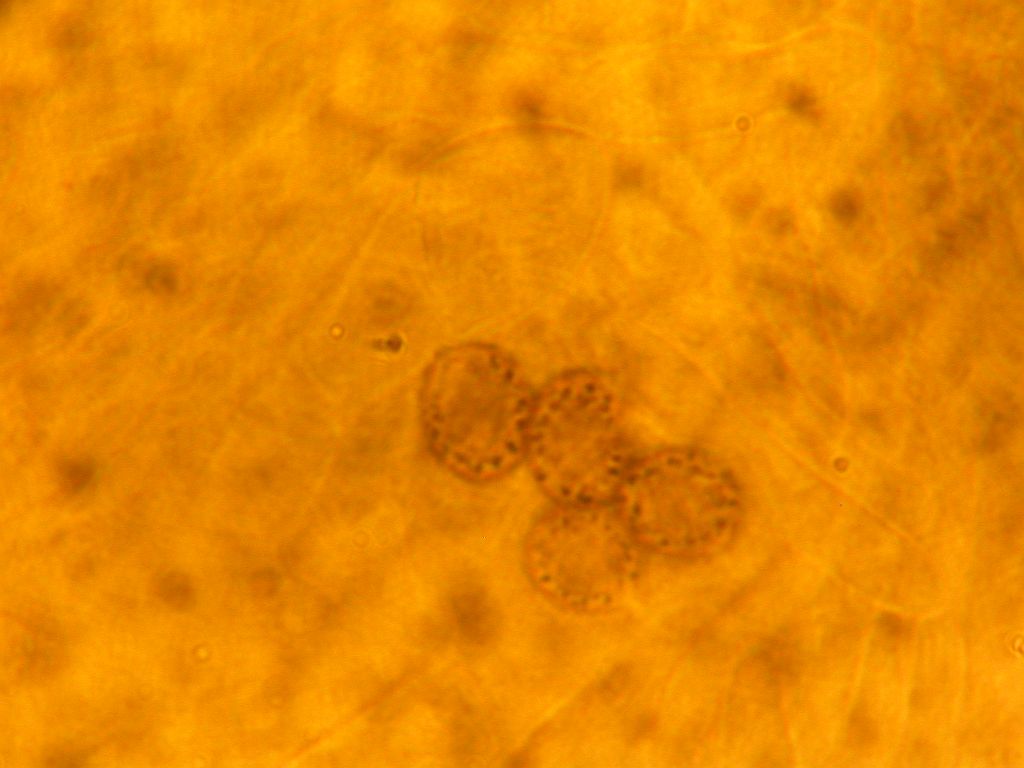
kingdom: Fungi
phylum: Basidiomycota
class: Agaricomycetes
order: Russulales
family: Russulaceae
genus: Russula
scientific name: Russula ionochlora
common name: violetgrøn skørhat
